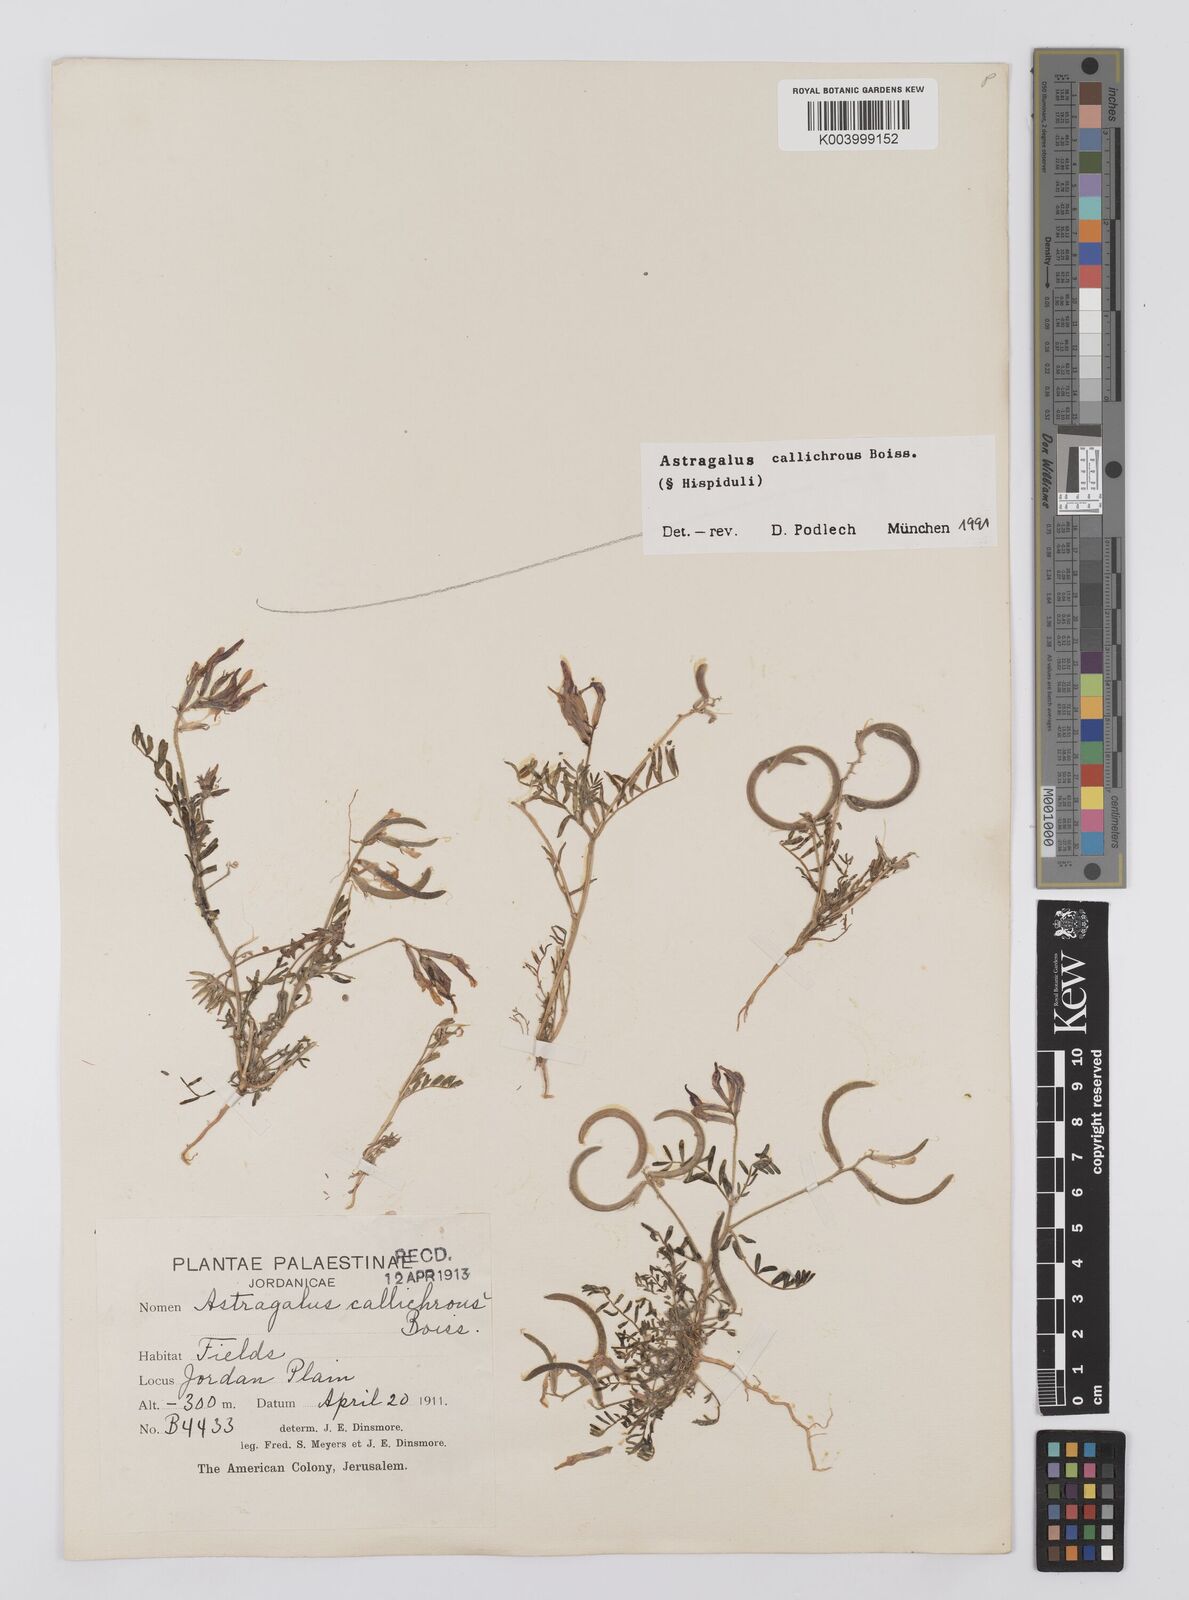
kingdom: Plantae
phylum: Tracheophyta
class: Magnoliopsida
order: Fabales
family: Fabaceae
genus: Astragalus
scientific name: Astragalus callichrous
